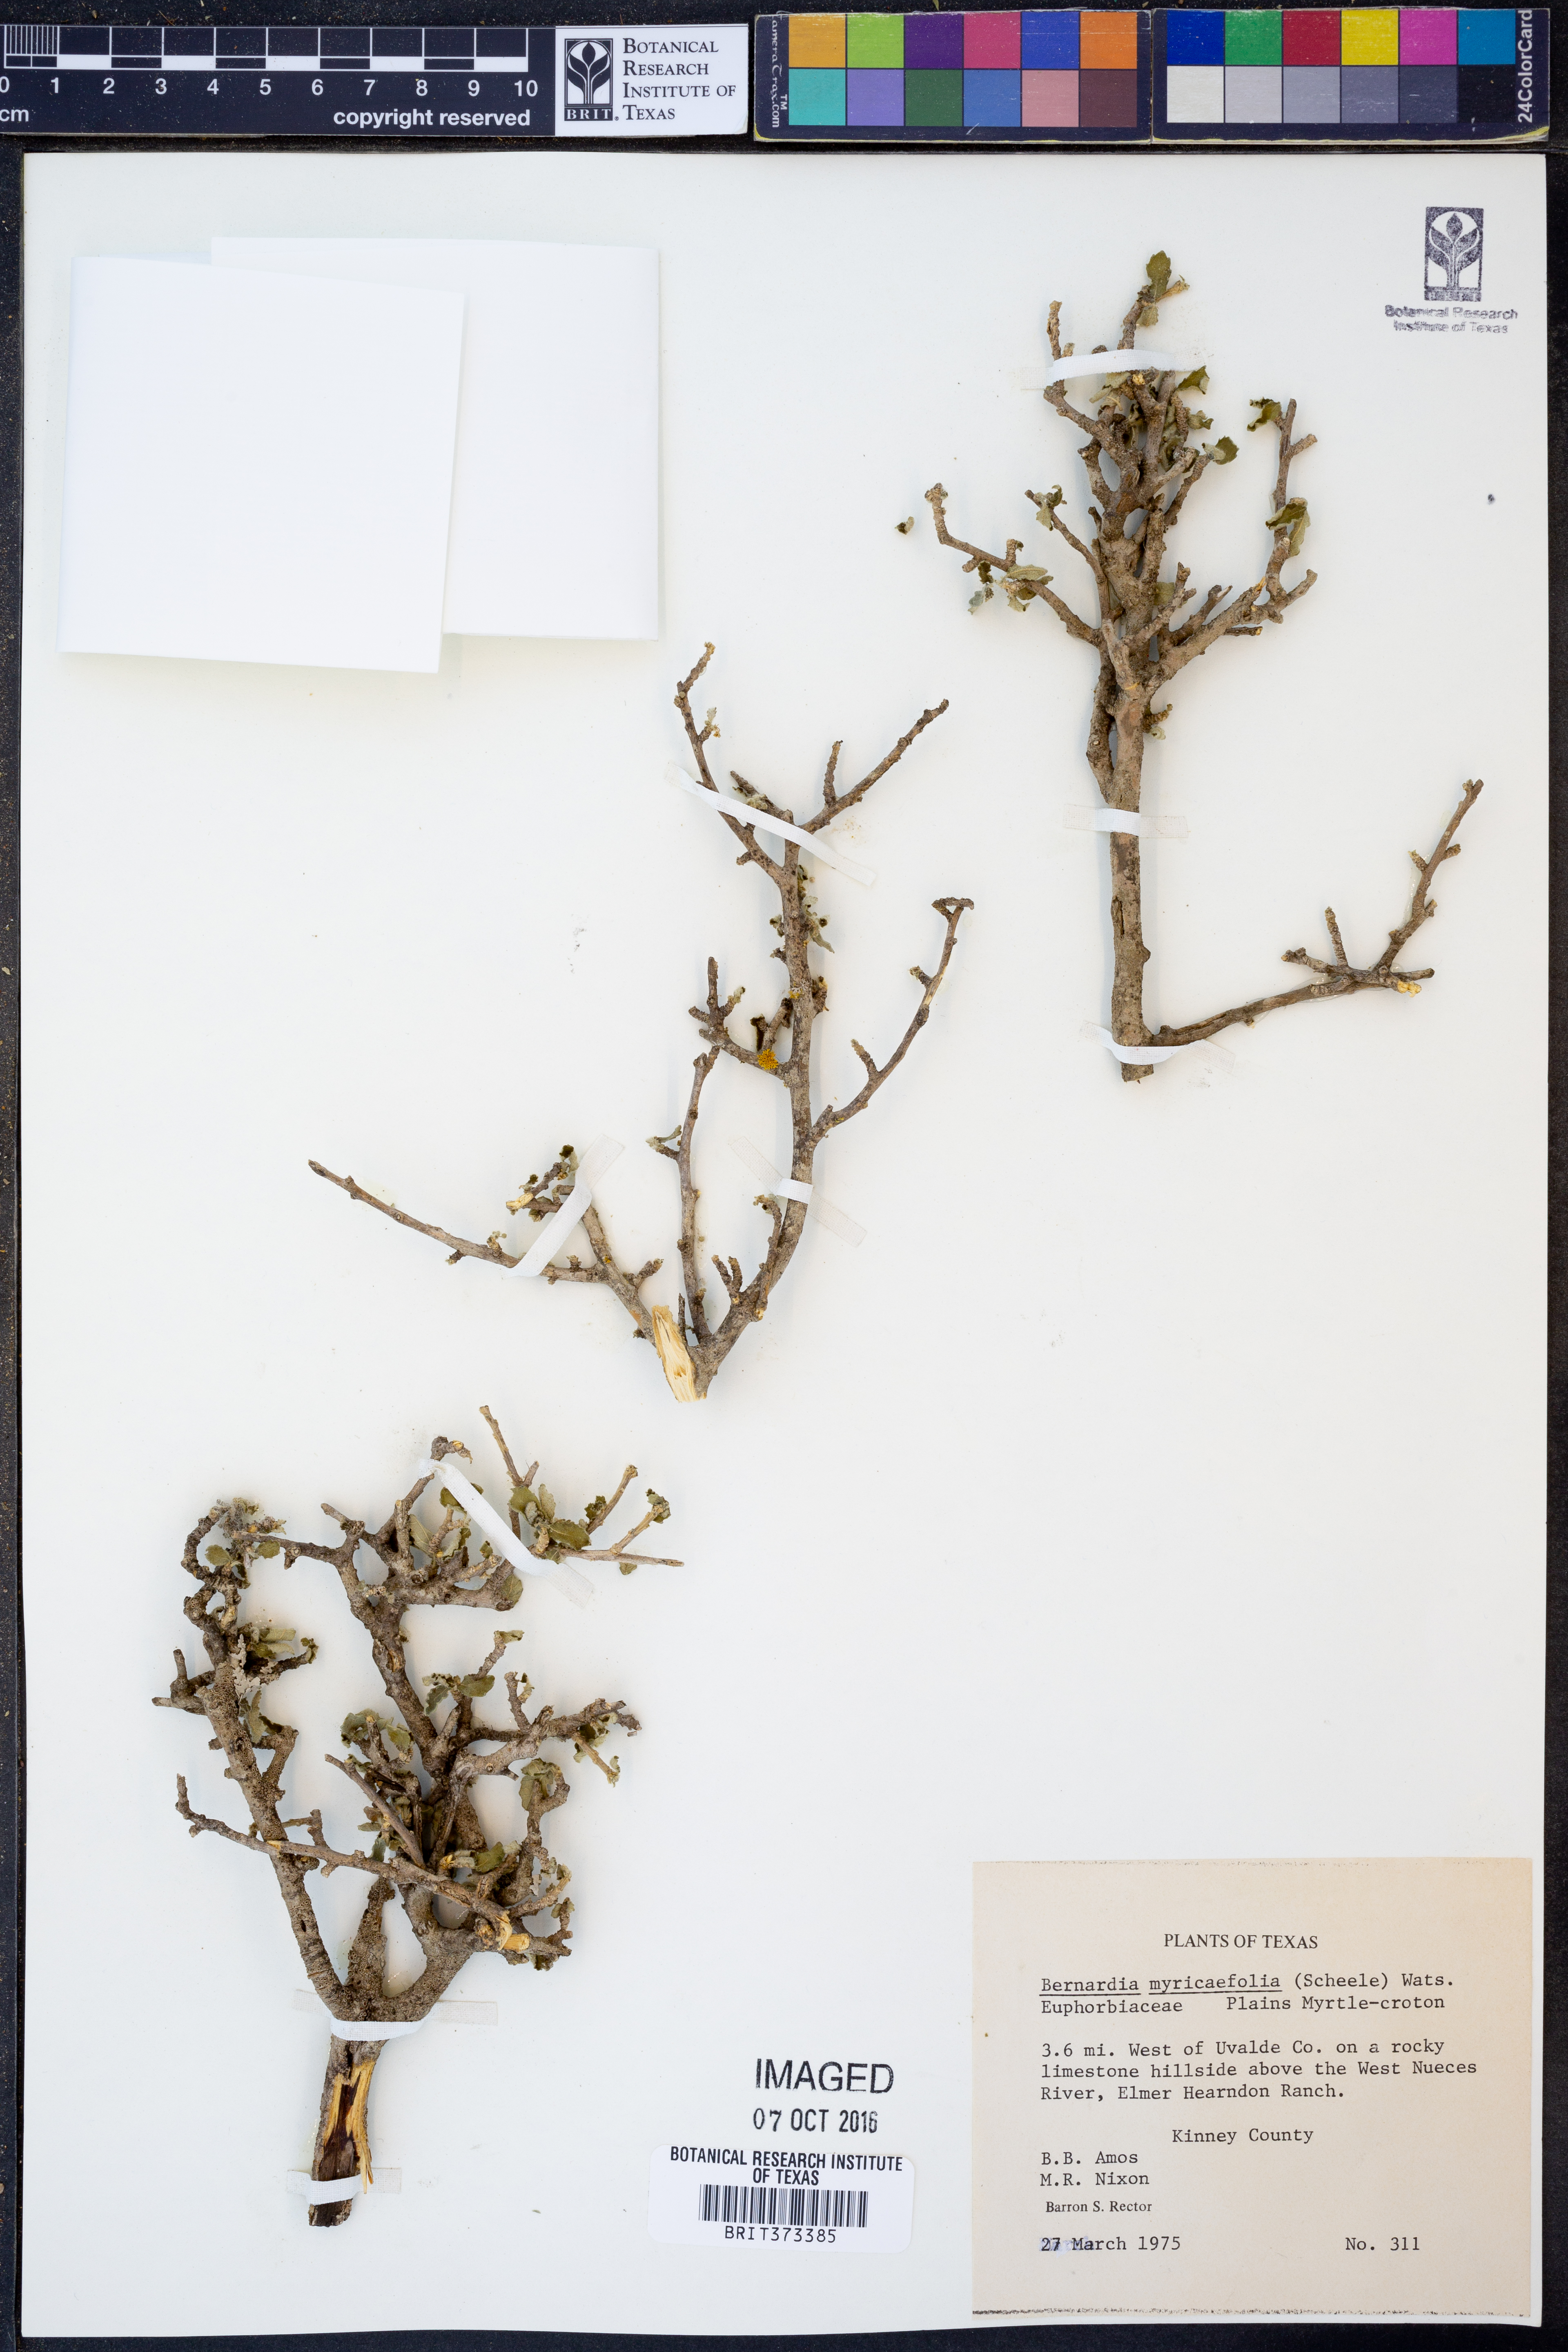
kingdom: Plantae
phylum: Tracheophyta
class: Magnoliopsida
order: Malpighiales
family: Euphorbiaceae
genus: Bernardia
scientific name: Bernardia myricifolia
